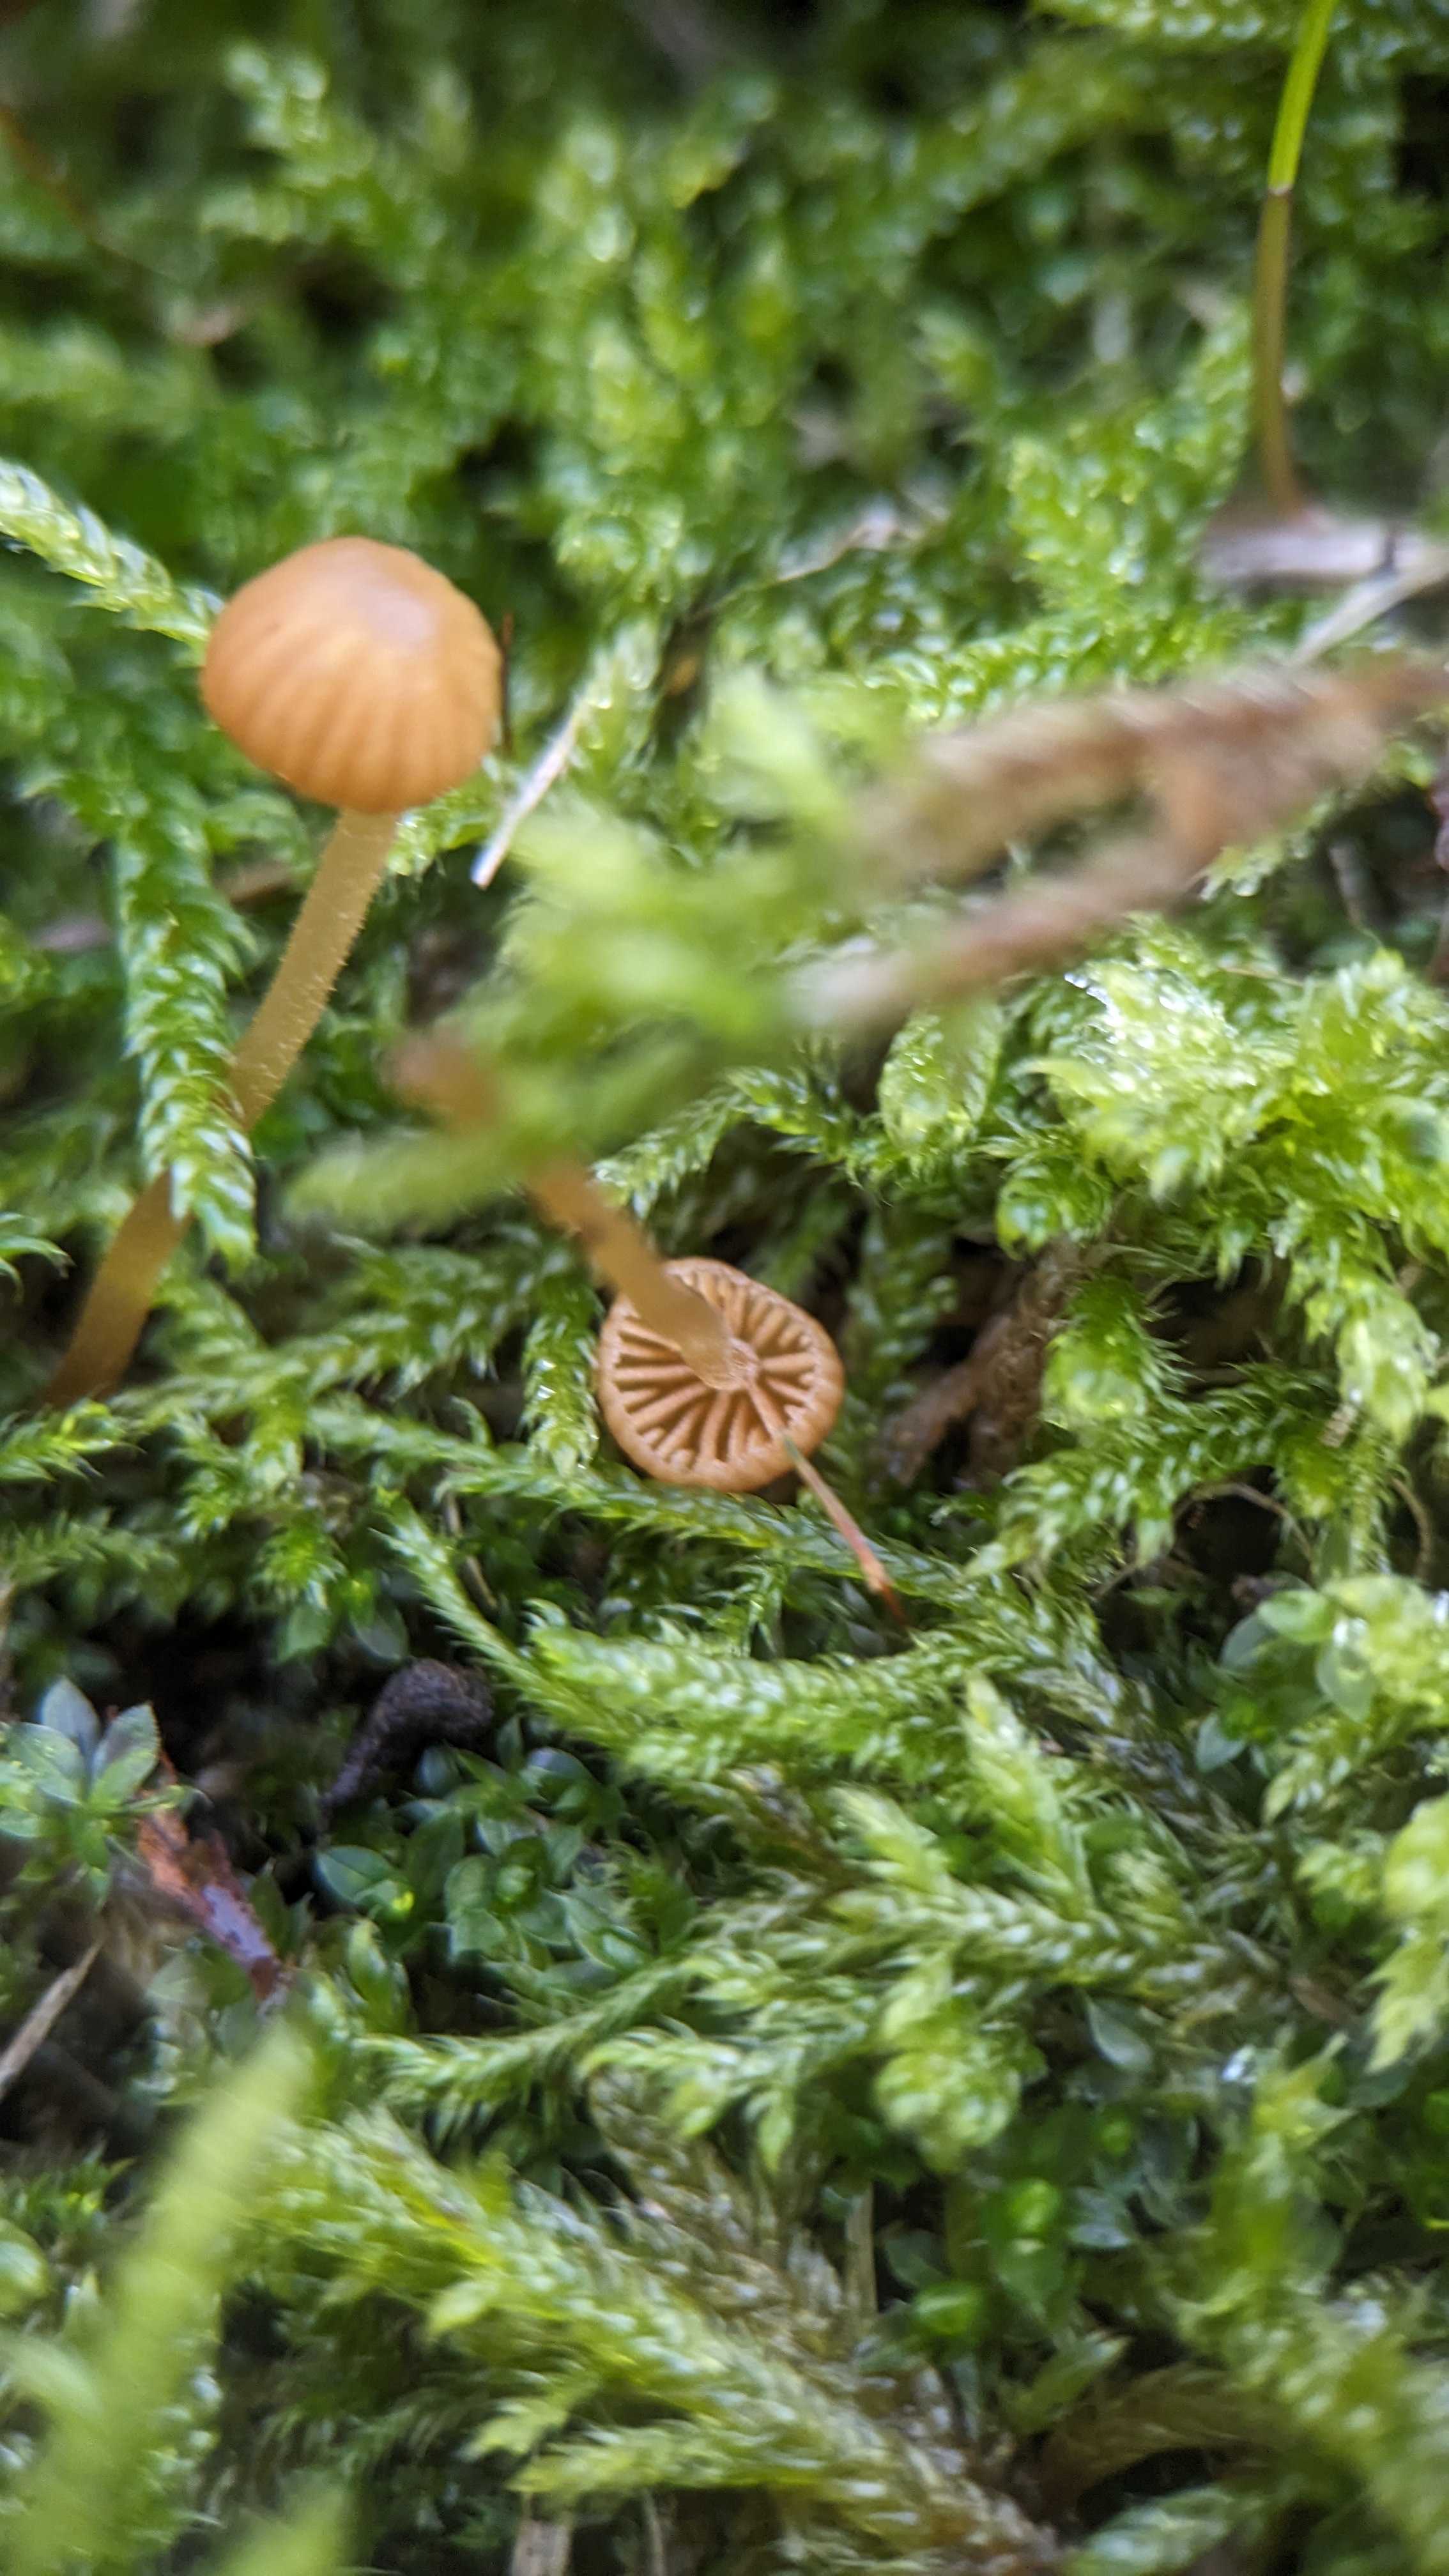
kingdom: Fungi
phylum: Basidiomycota
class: Agaricomycetes
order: Agaricales
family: Hymenogastraceae
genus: Galerina
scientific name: Galerina
